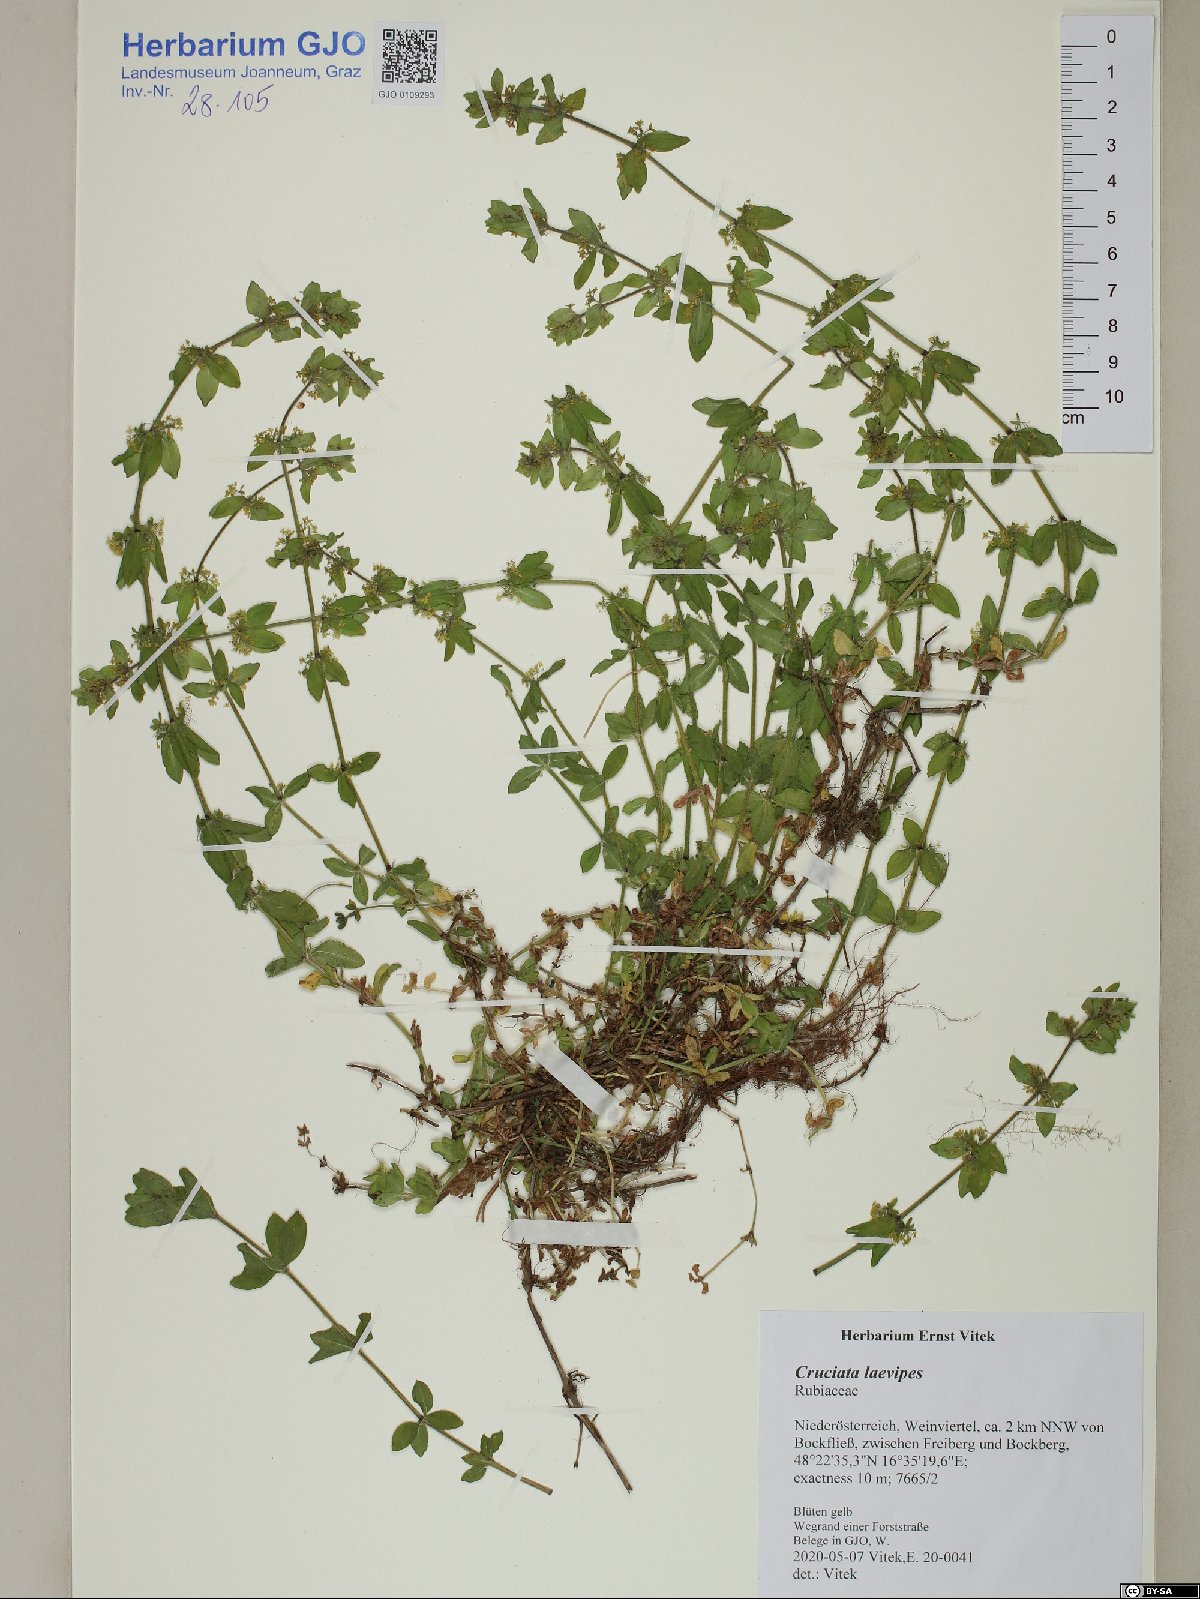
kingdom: Plantae
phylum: Tracheophyta
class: Magnoliopsida
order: Gentianales
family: Rubiaceae
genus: Cruciata
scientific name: Cruciata laevipes
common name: Crosswort
